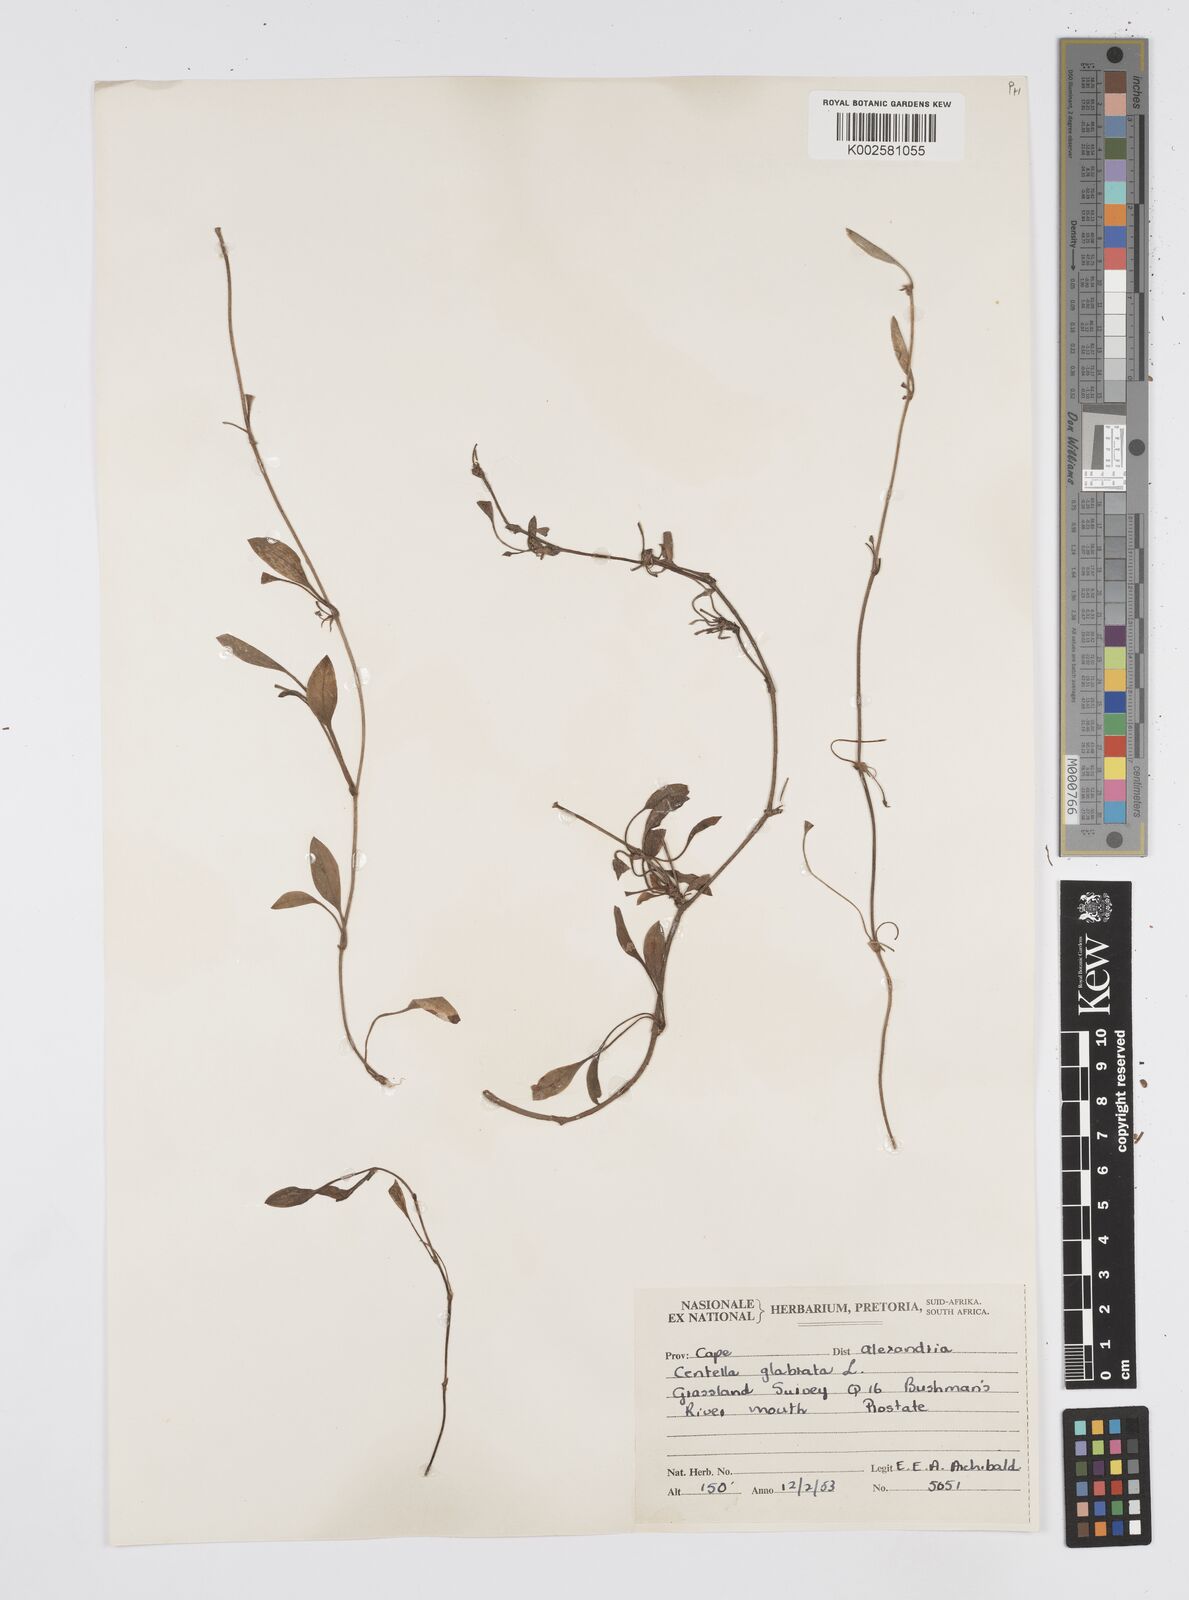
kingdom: Plantae
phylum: Tracheophyta
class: Magnoliopsida
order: Apiales
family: Apiaceae
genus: Centella
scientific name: Centella glabrata
